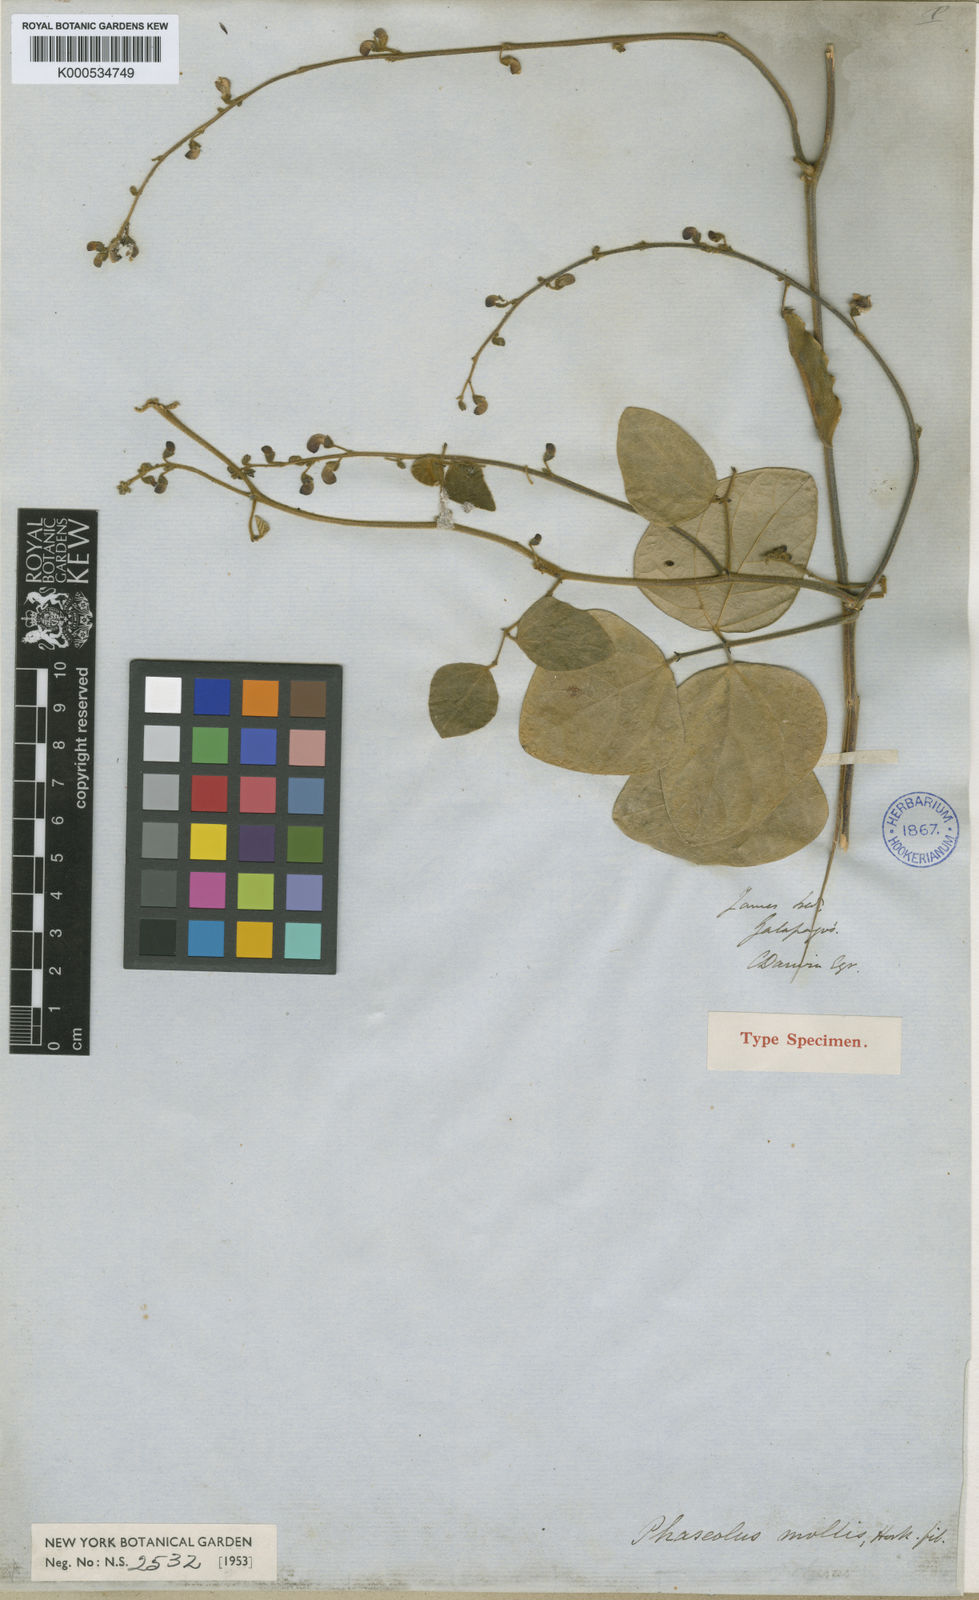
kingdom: Plantae
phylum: Tracheophyta
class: Magnoliopsida
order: Fabales
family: Fabaceae
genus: Phaseolus
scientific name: Phaseolus mollis
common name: Galapagos bean
